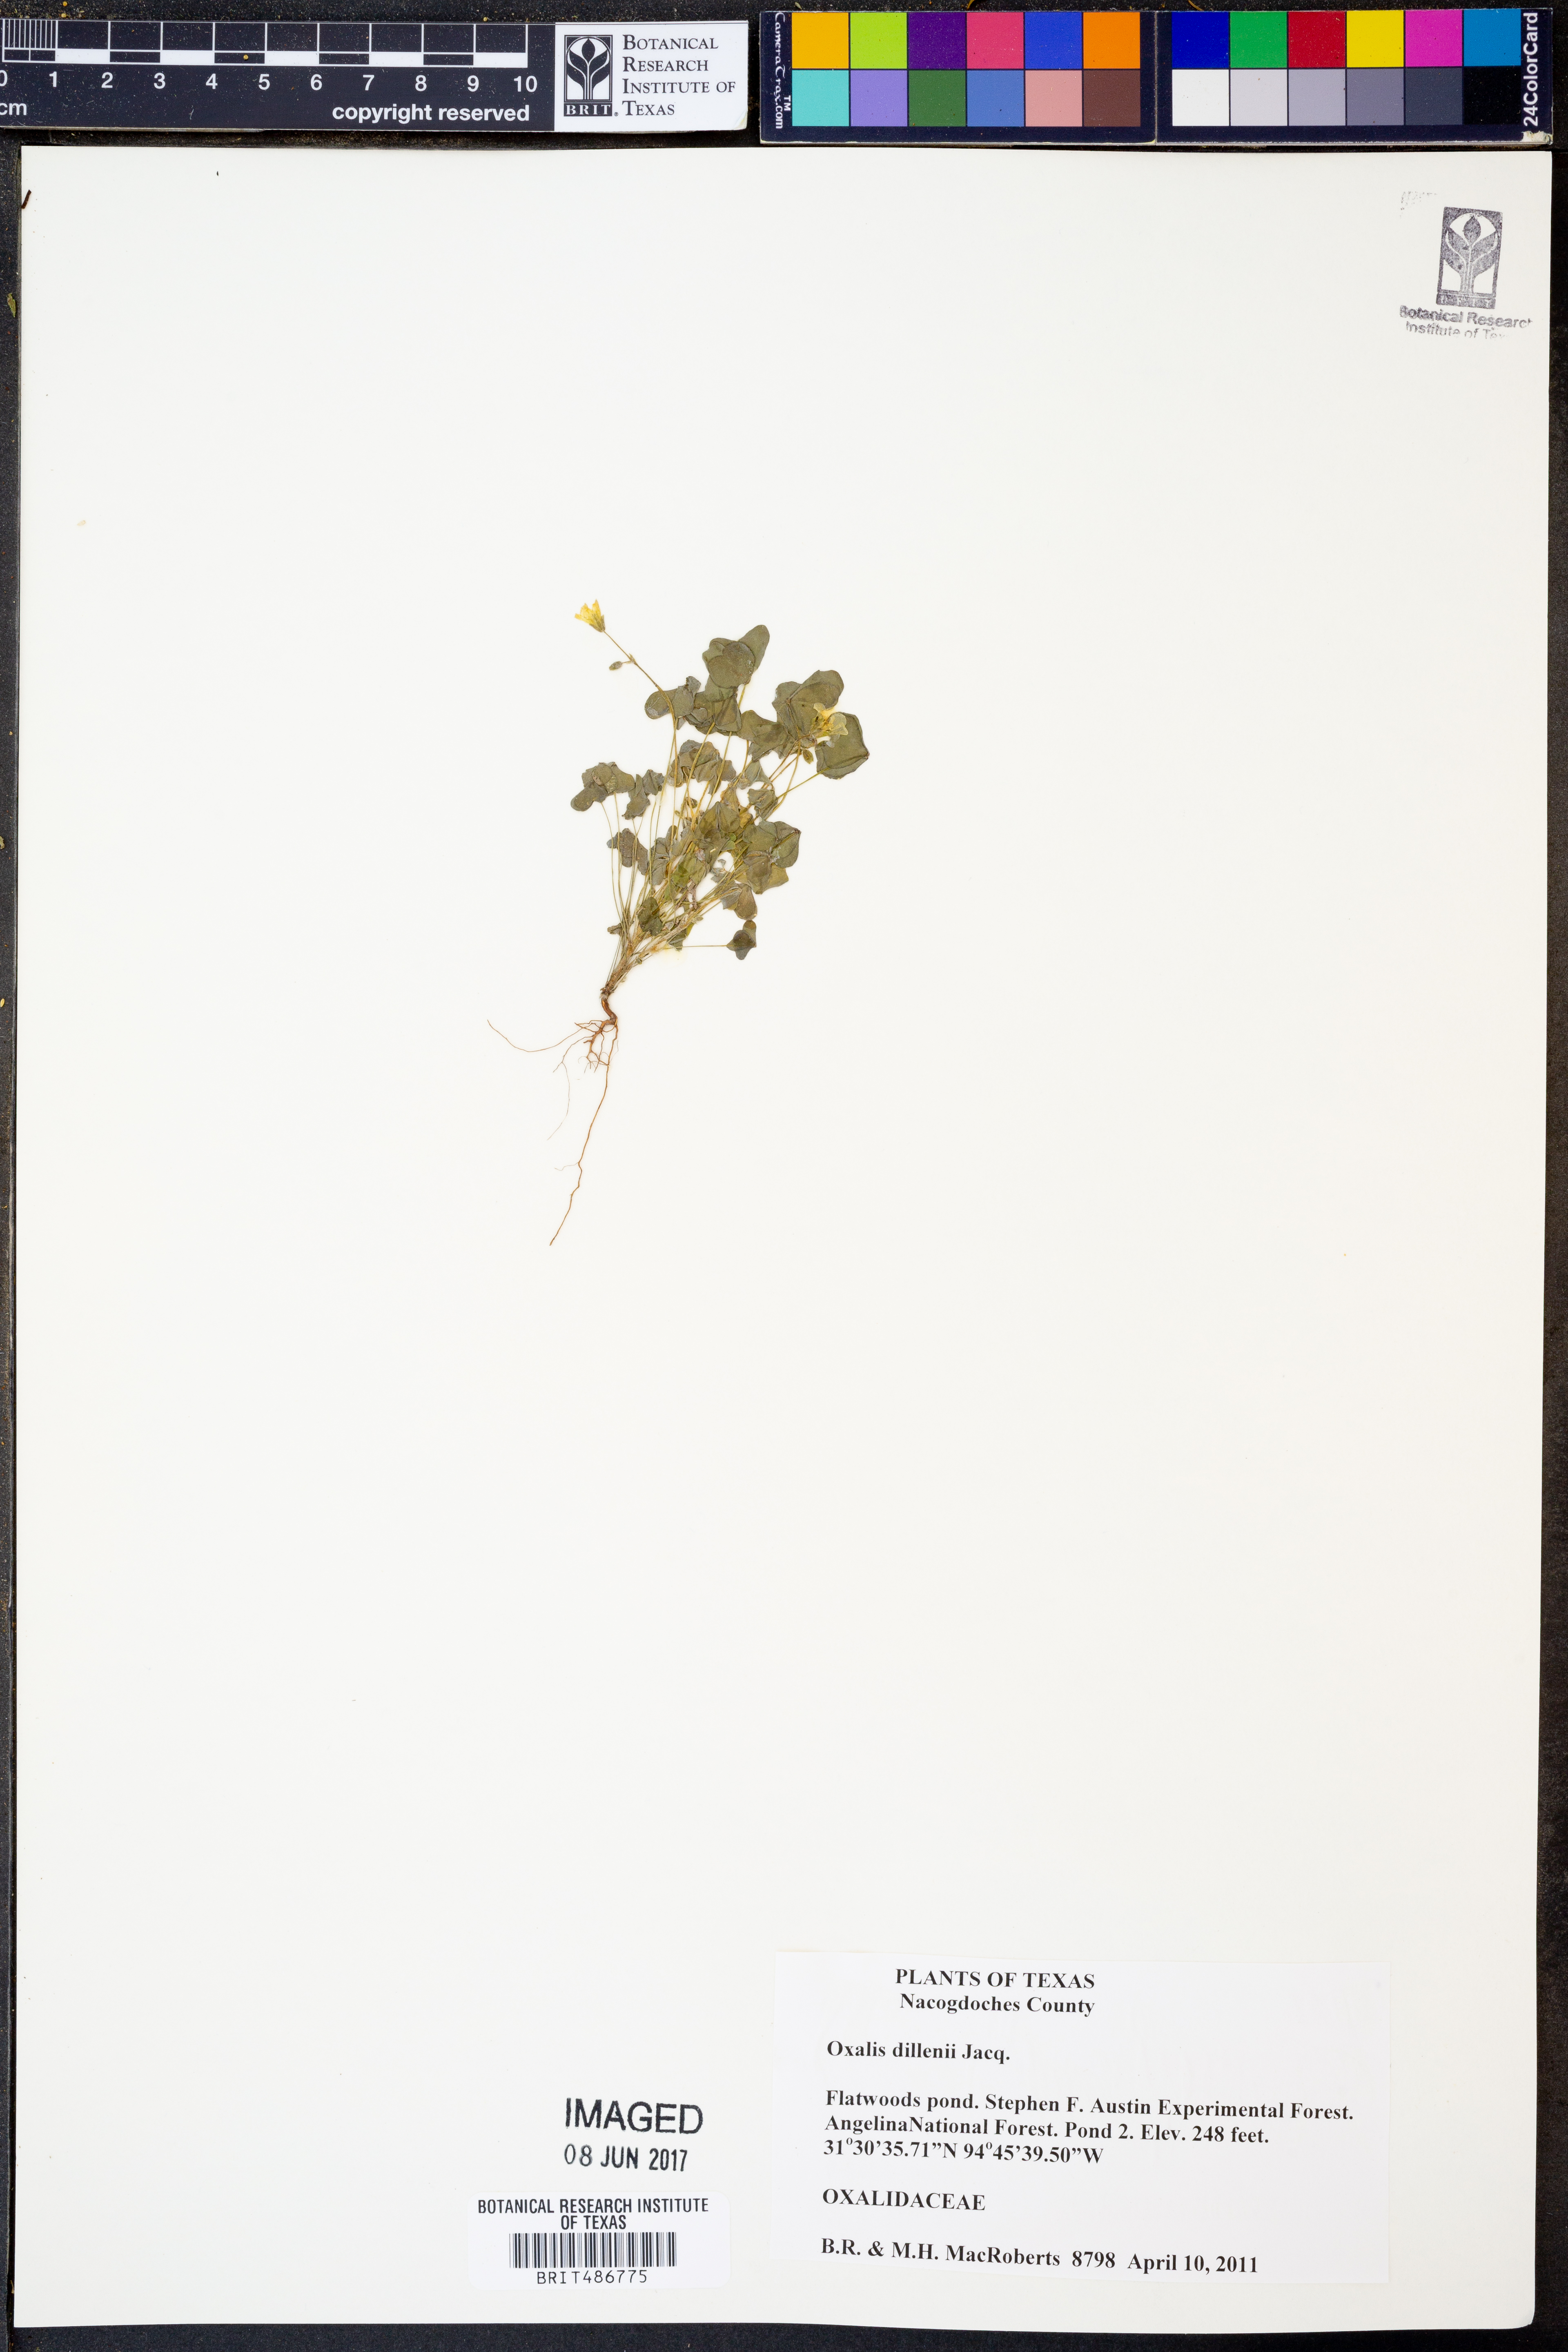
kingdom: Plantae
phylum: Tracheophyta
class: Magnoliopsida
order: Oxalidales
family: Oxalidaceae
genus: Oxalis
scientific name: Oxalis dillenii
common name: Sussex yellow-sorrel
